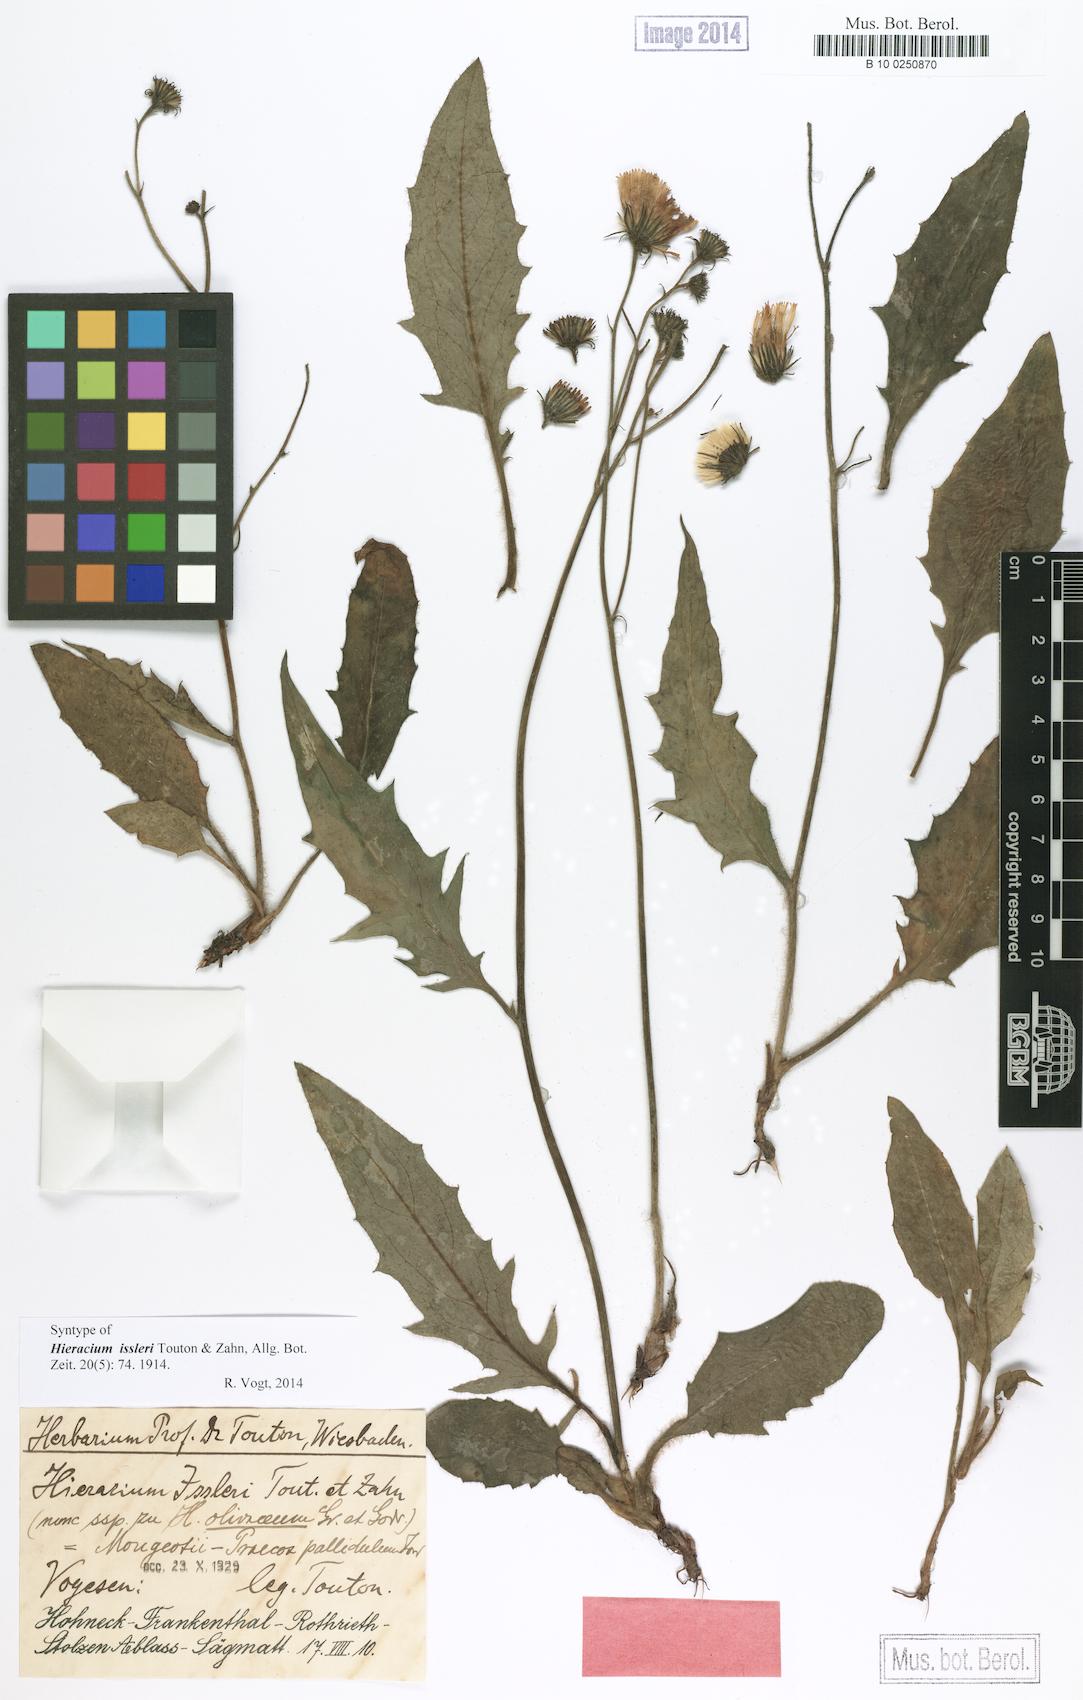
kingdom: Plantae
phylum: Tracheophyta
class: Magnoliopsida
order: Asterales
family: Asteraceae
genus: Hieracium
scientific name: Hieracium juranum
